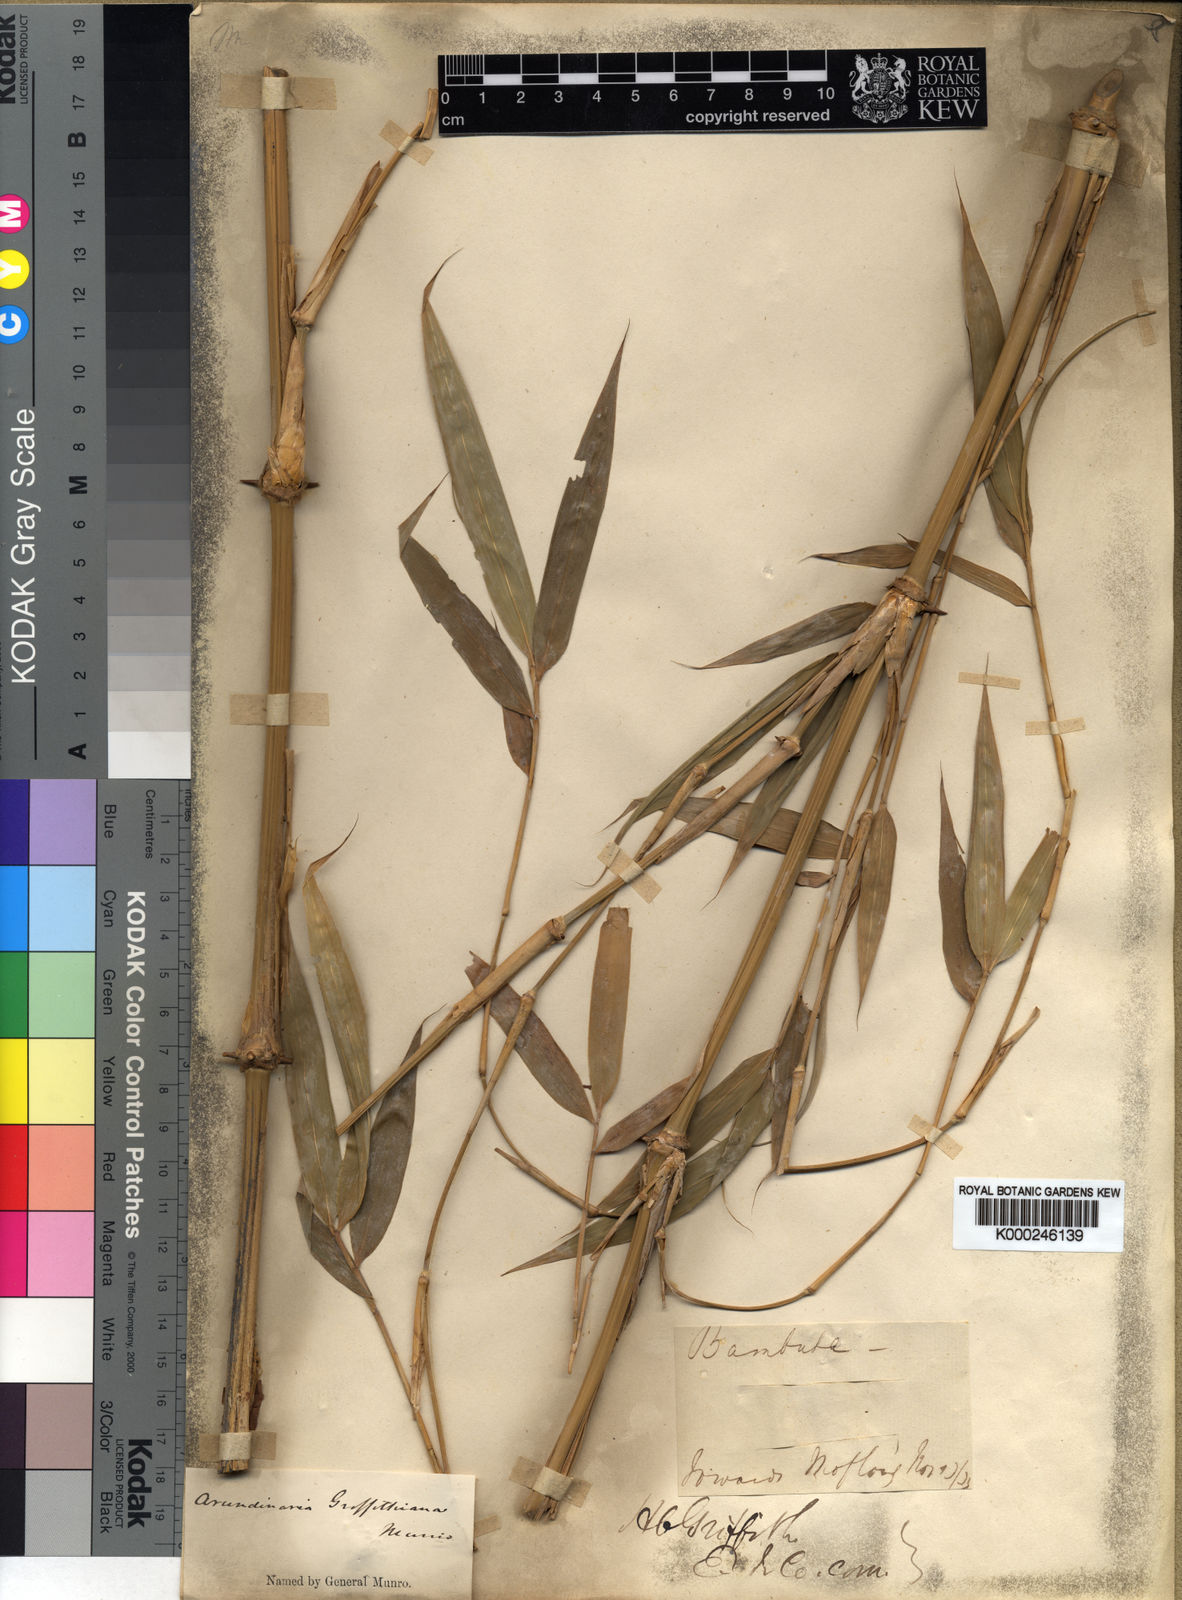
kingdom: Plantae
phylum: Tracheophyta
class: Liliopsida
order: Poales
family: Poaceae
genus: Chimonocalamus
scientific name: Chimonocalamus griffithianus
